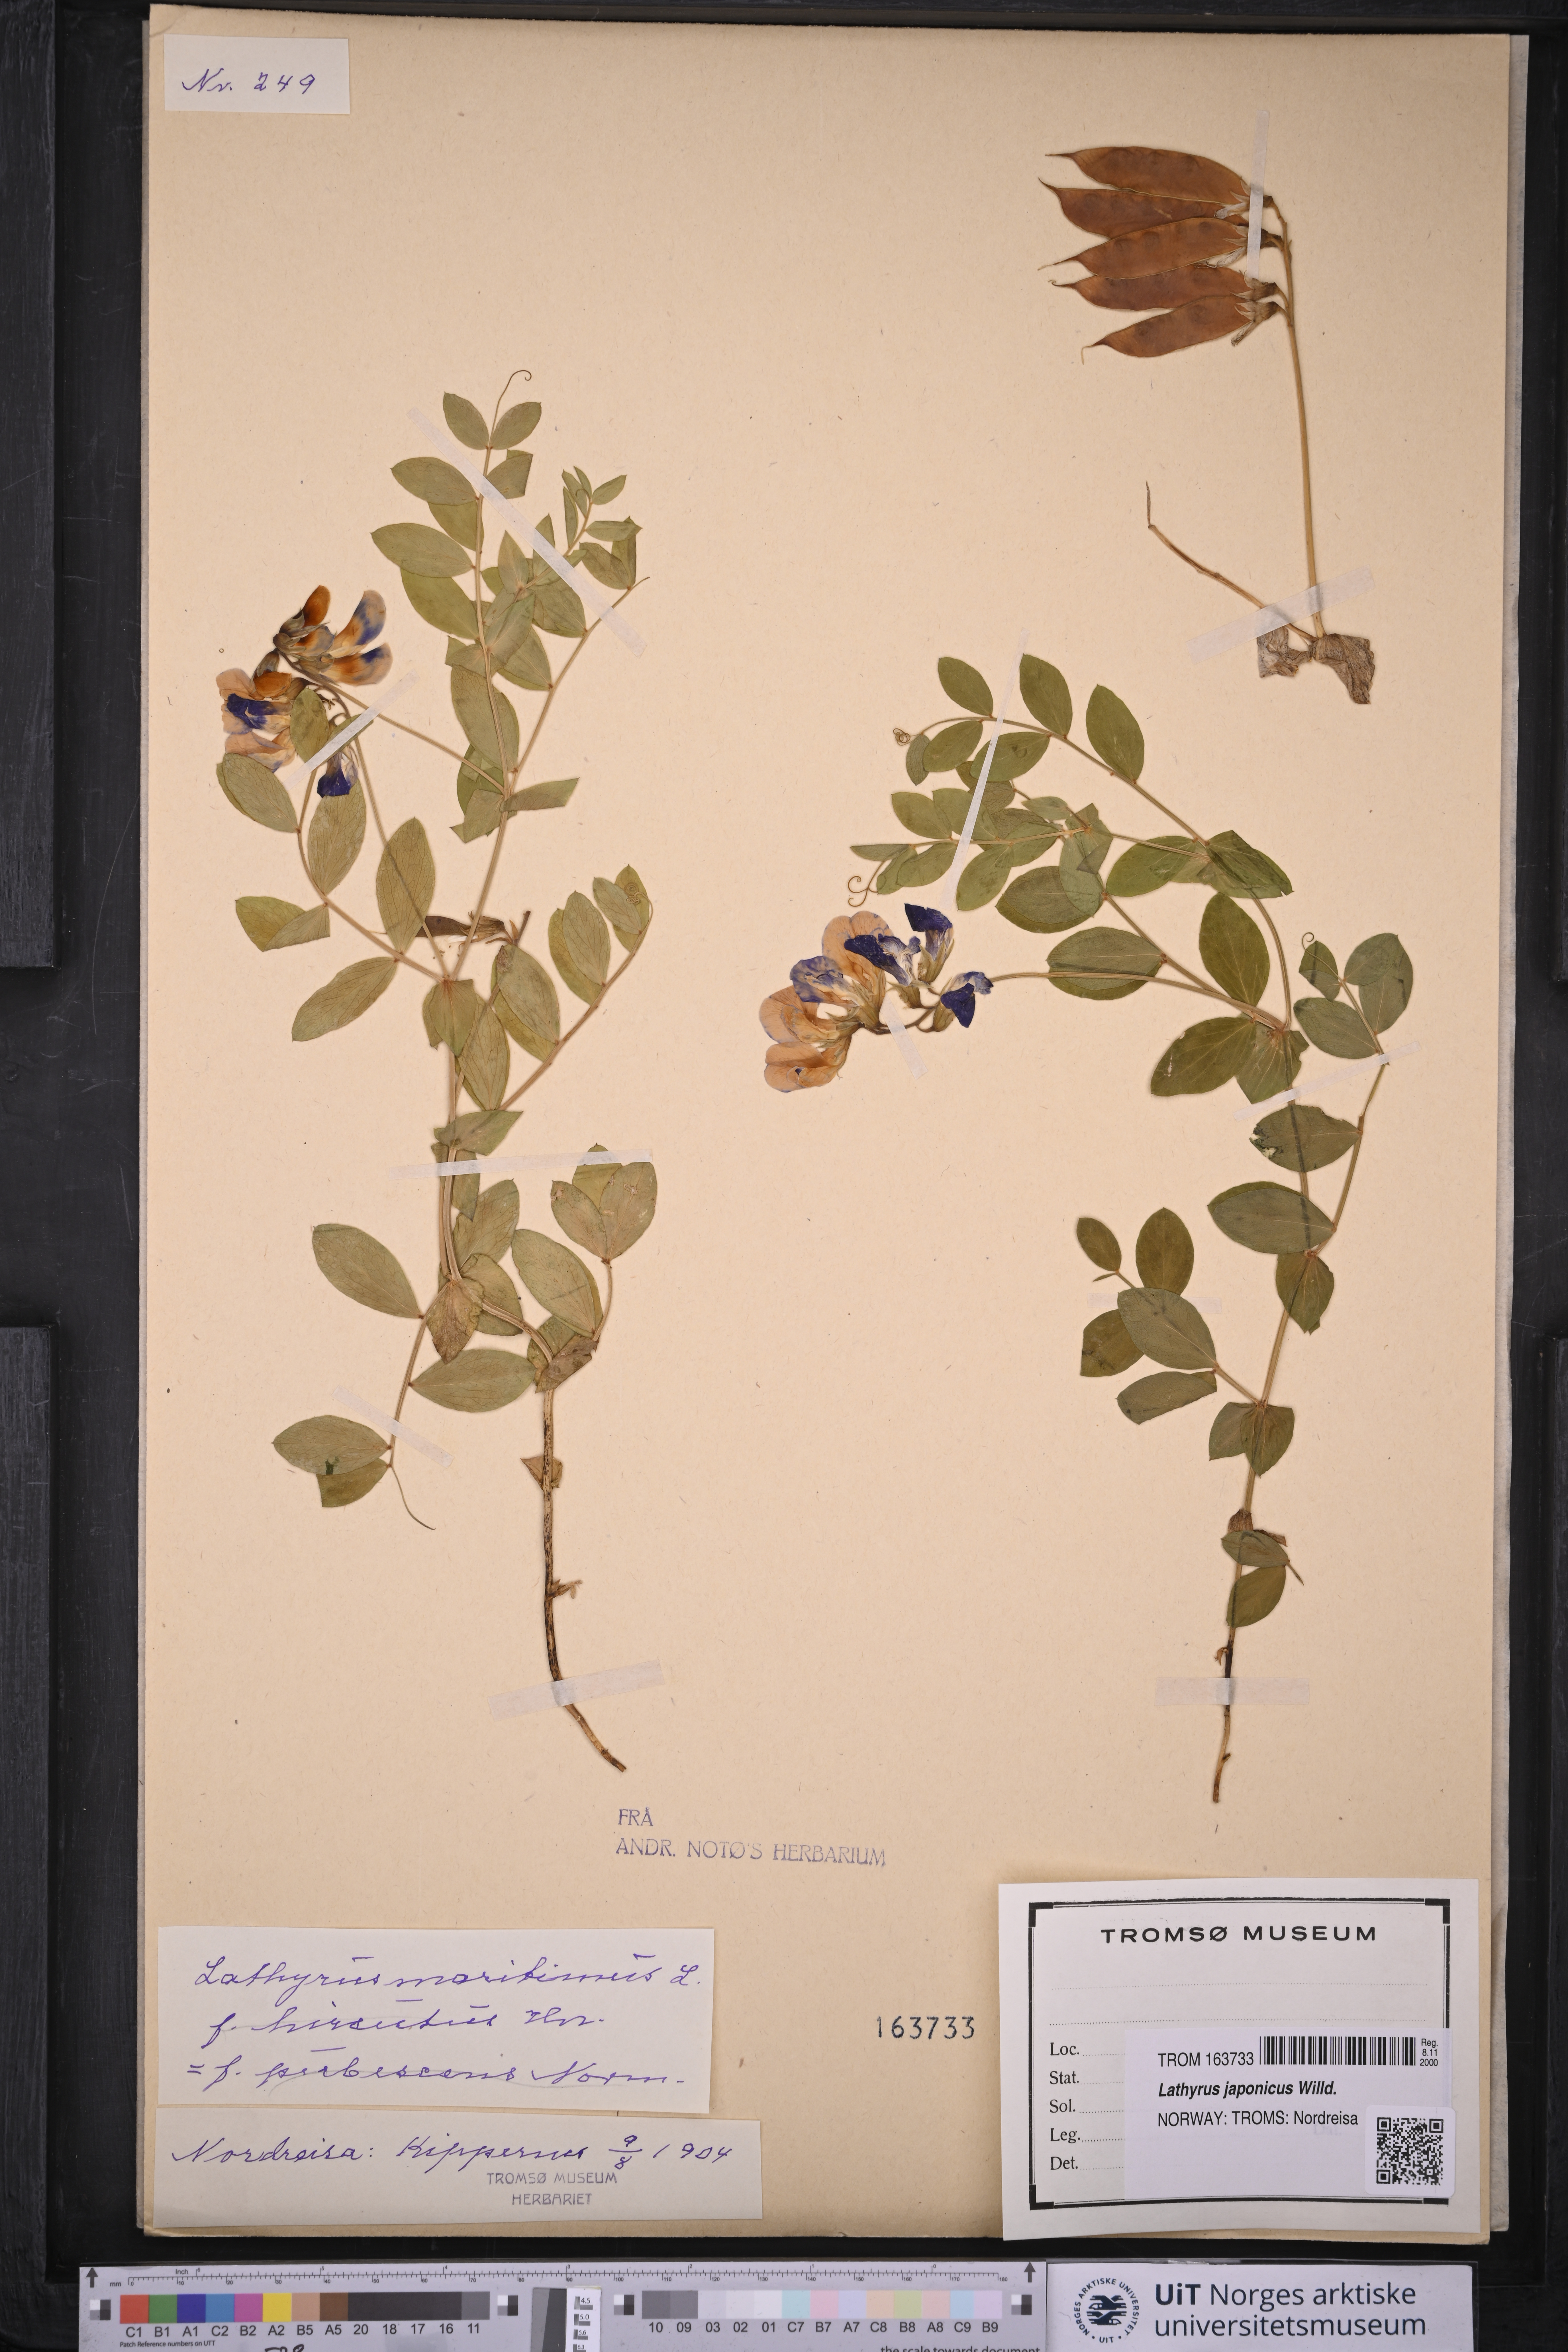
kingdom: Plantae
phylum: Tracheophyta
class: Magnoliopsida
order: Fabales
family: Fabaceae
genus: Lathyrus
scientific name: Lathyrus japonicus
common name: Sea pea
